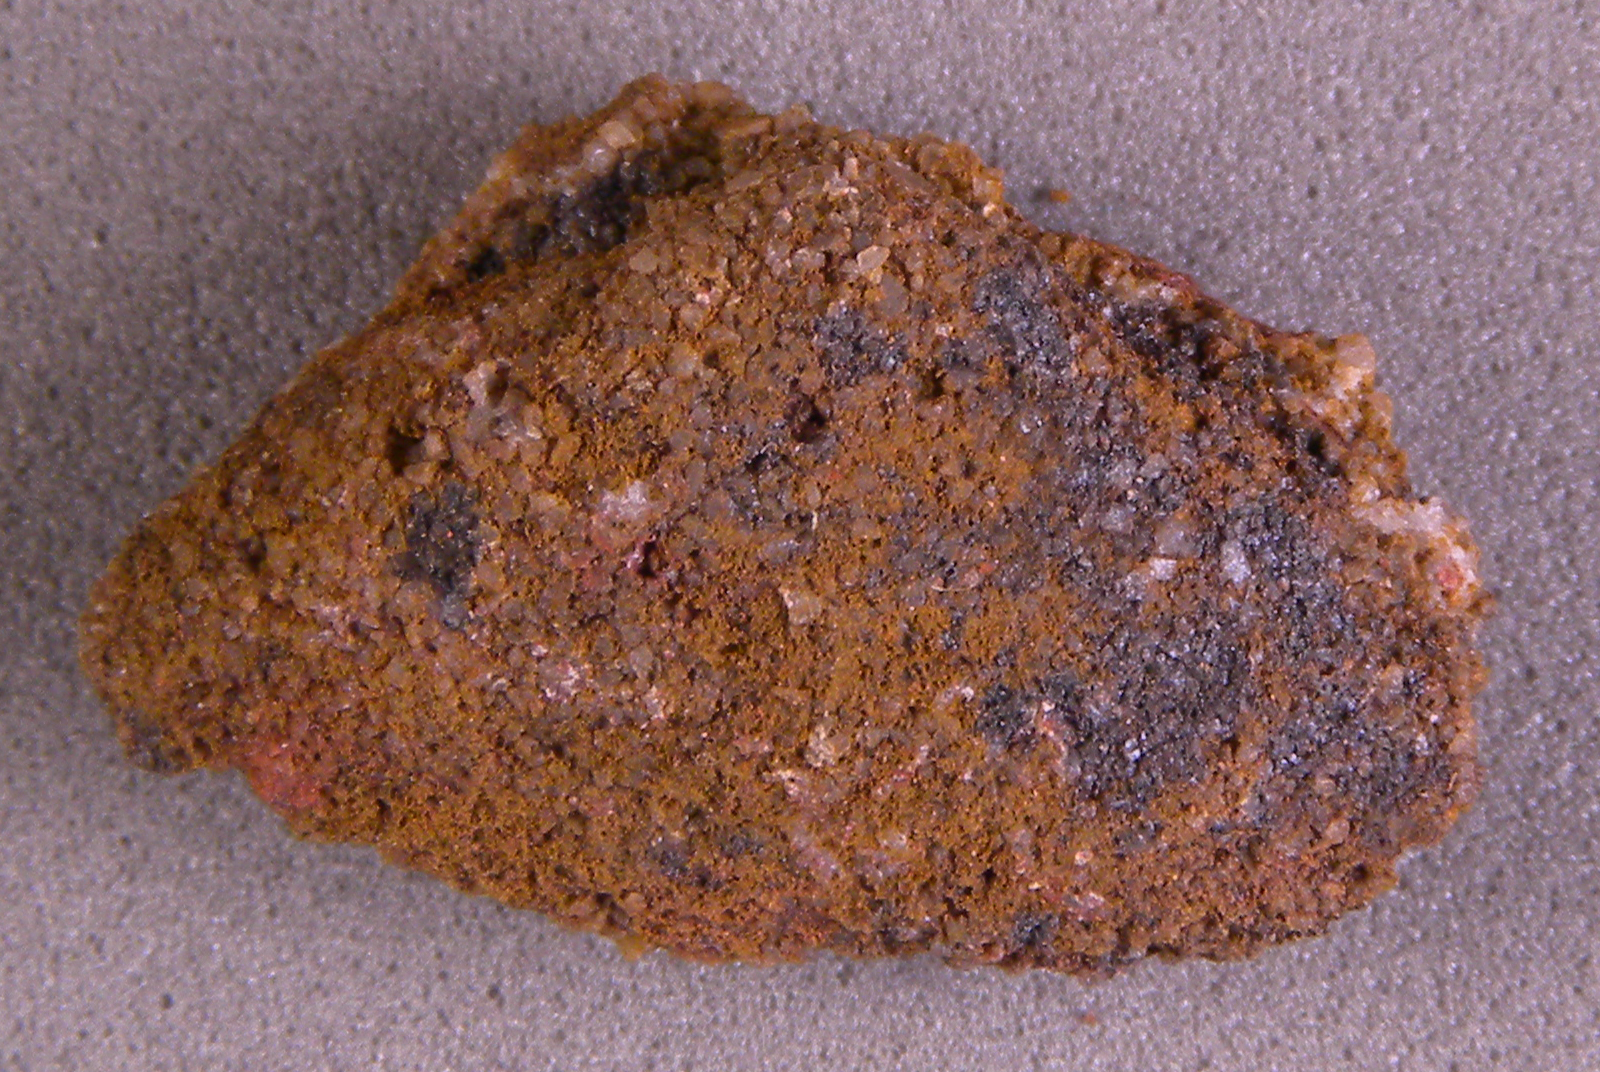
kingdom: Animalia
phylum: Mollusca
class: Bivalvia
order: Nuculanida
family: Malletiidae
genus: Palaeoneilo
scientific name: Palaeoneilo
